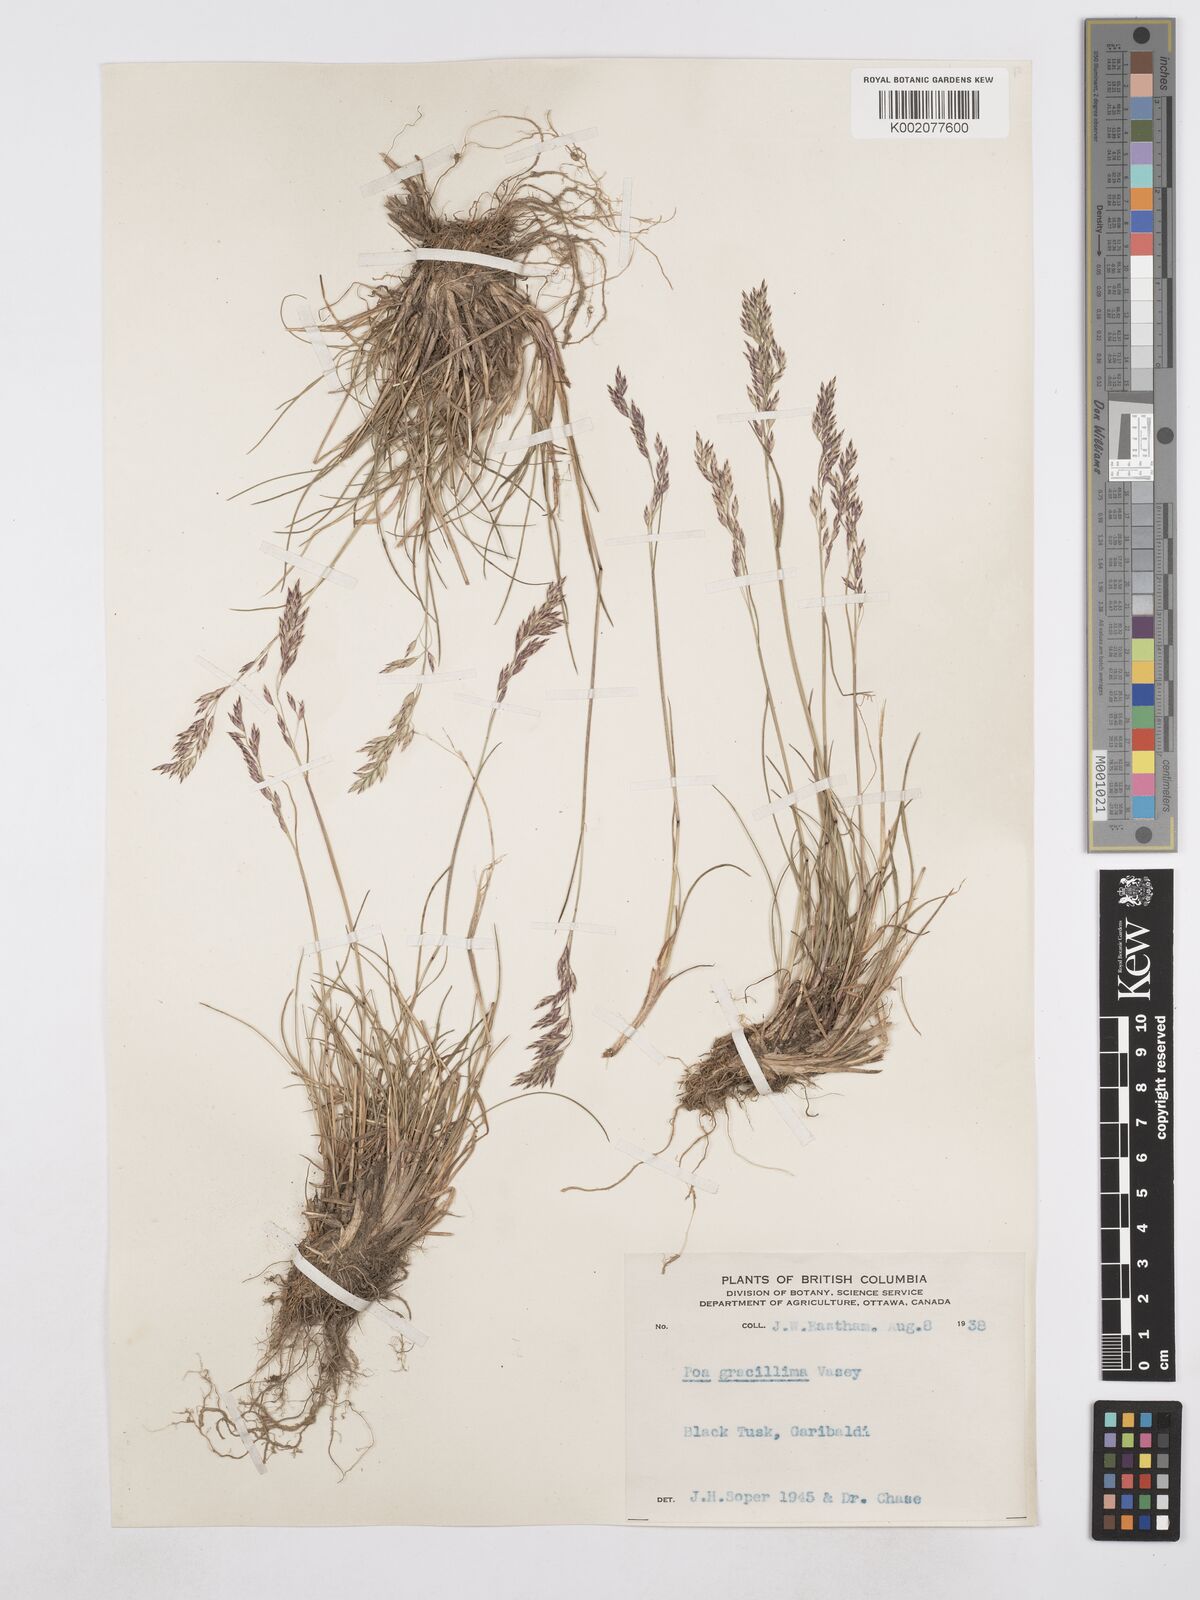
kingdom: Plantae
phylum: Tracheophyta
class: Liliopsida
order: Poales
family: Poaceae
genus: Poa
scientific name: Poa secunda
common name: Sandberg bluegrass
